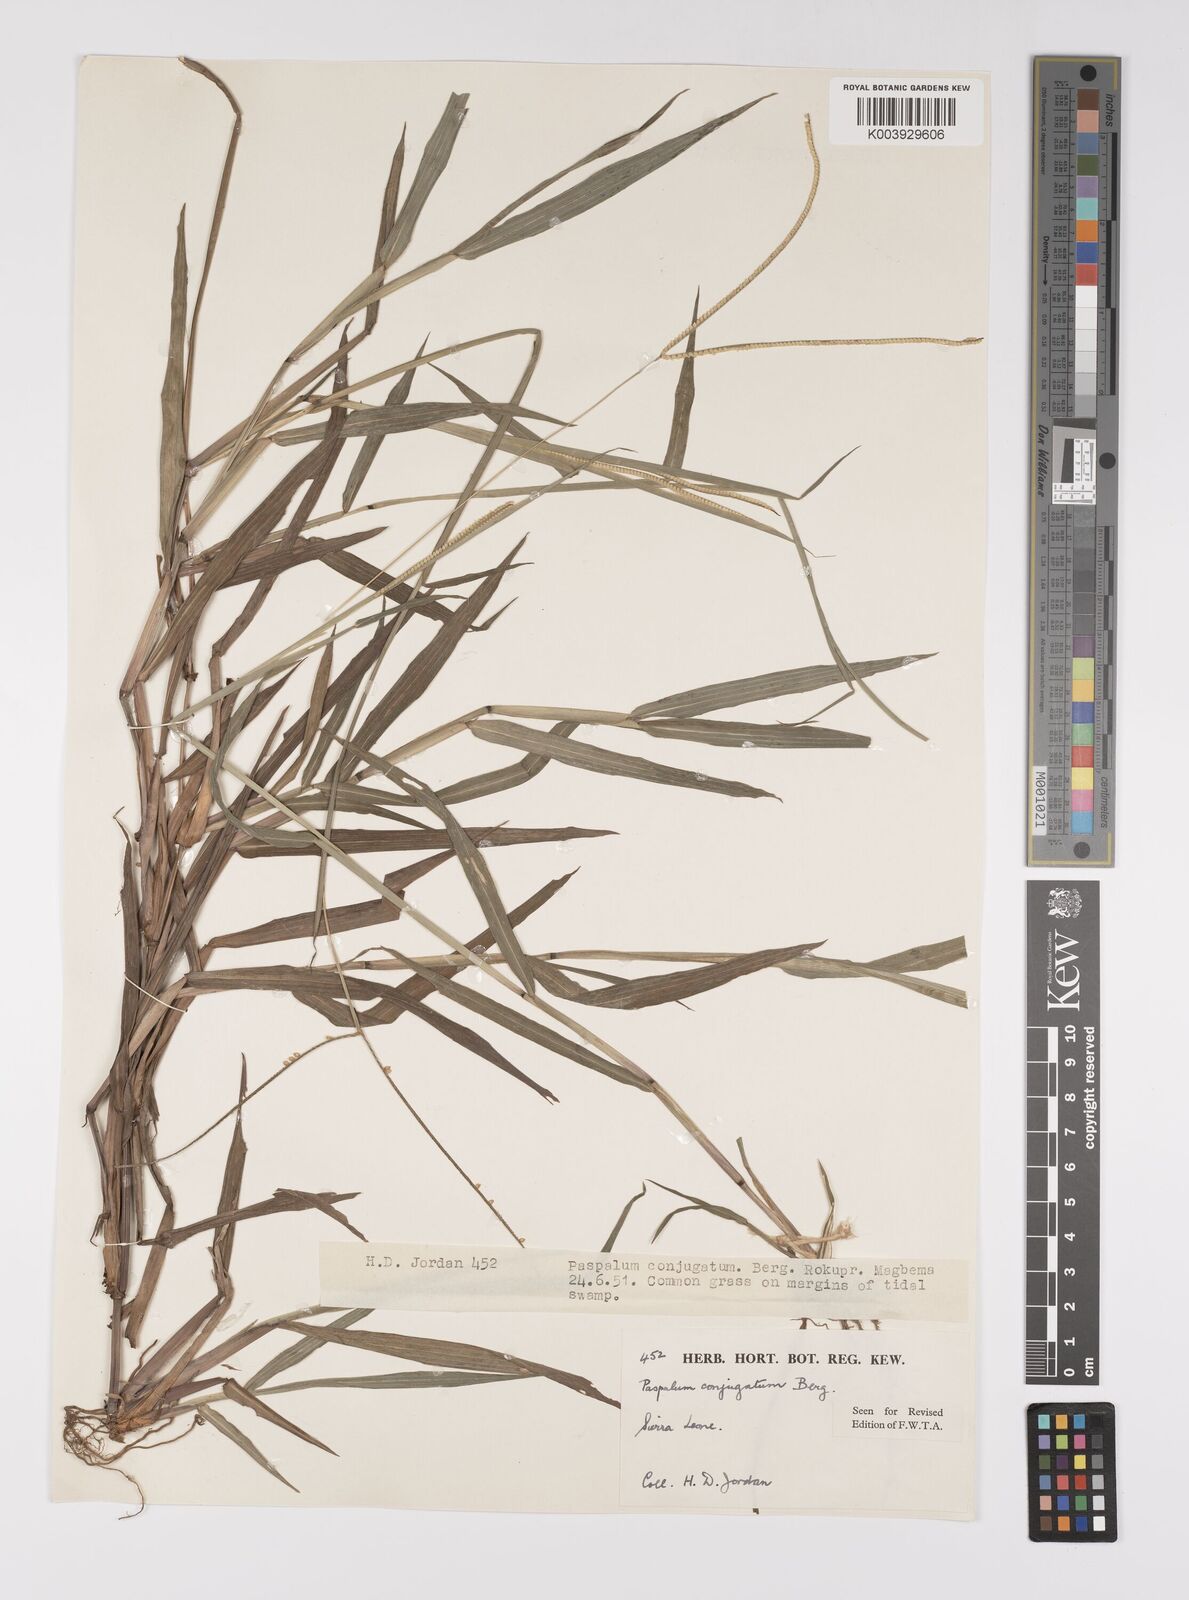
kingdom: Plantae
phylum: Tracheophyta
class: Liliopsida
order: Poales
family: Poaceae
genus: Paspalum
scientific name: Paspalum conjugatum
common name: Hilograss
